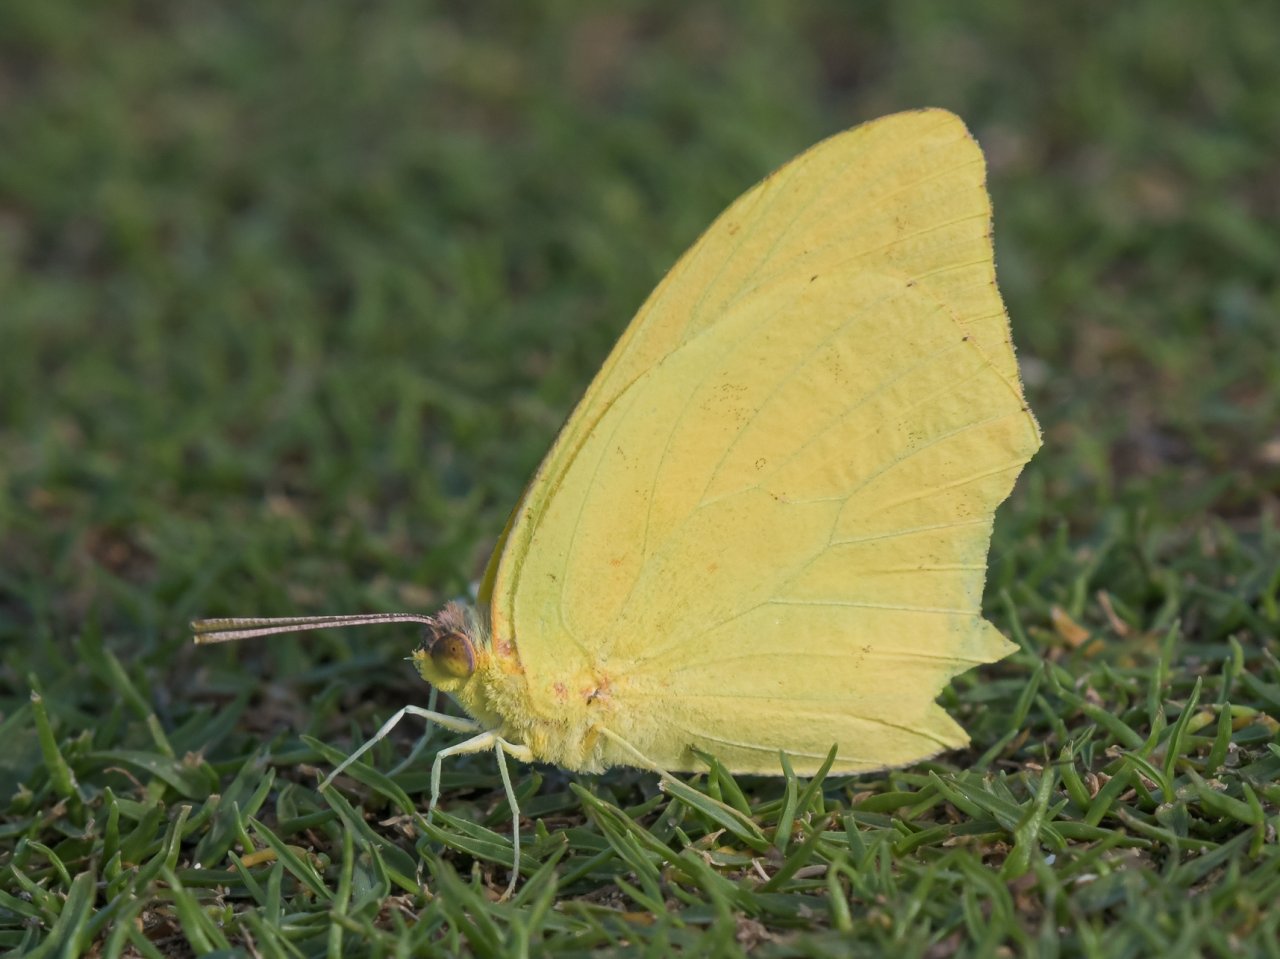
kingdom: Animalia
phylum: Arthropoda
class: Insecta
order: Lepidoptera
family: Pieridae
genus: Phoebis
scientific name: Phoebis agarithe
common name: Large Orange Sulphur
